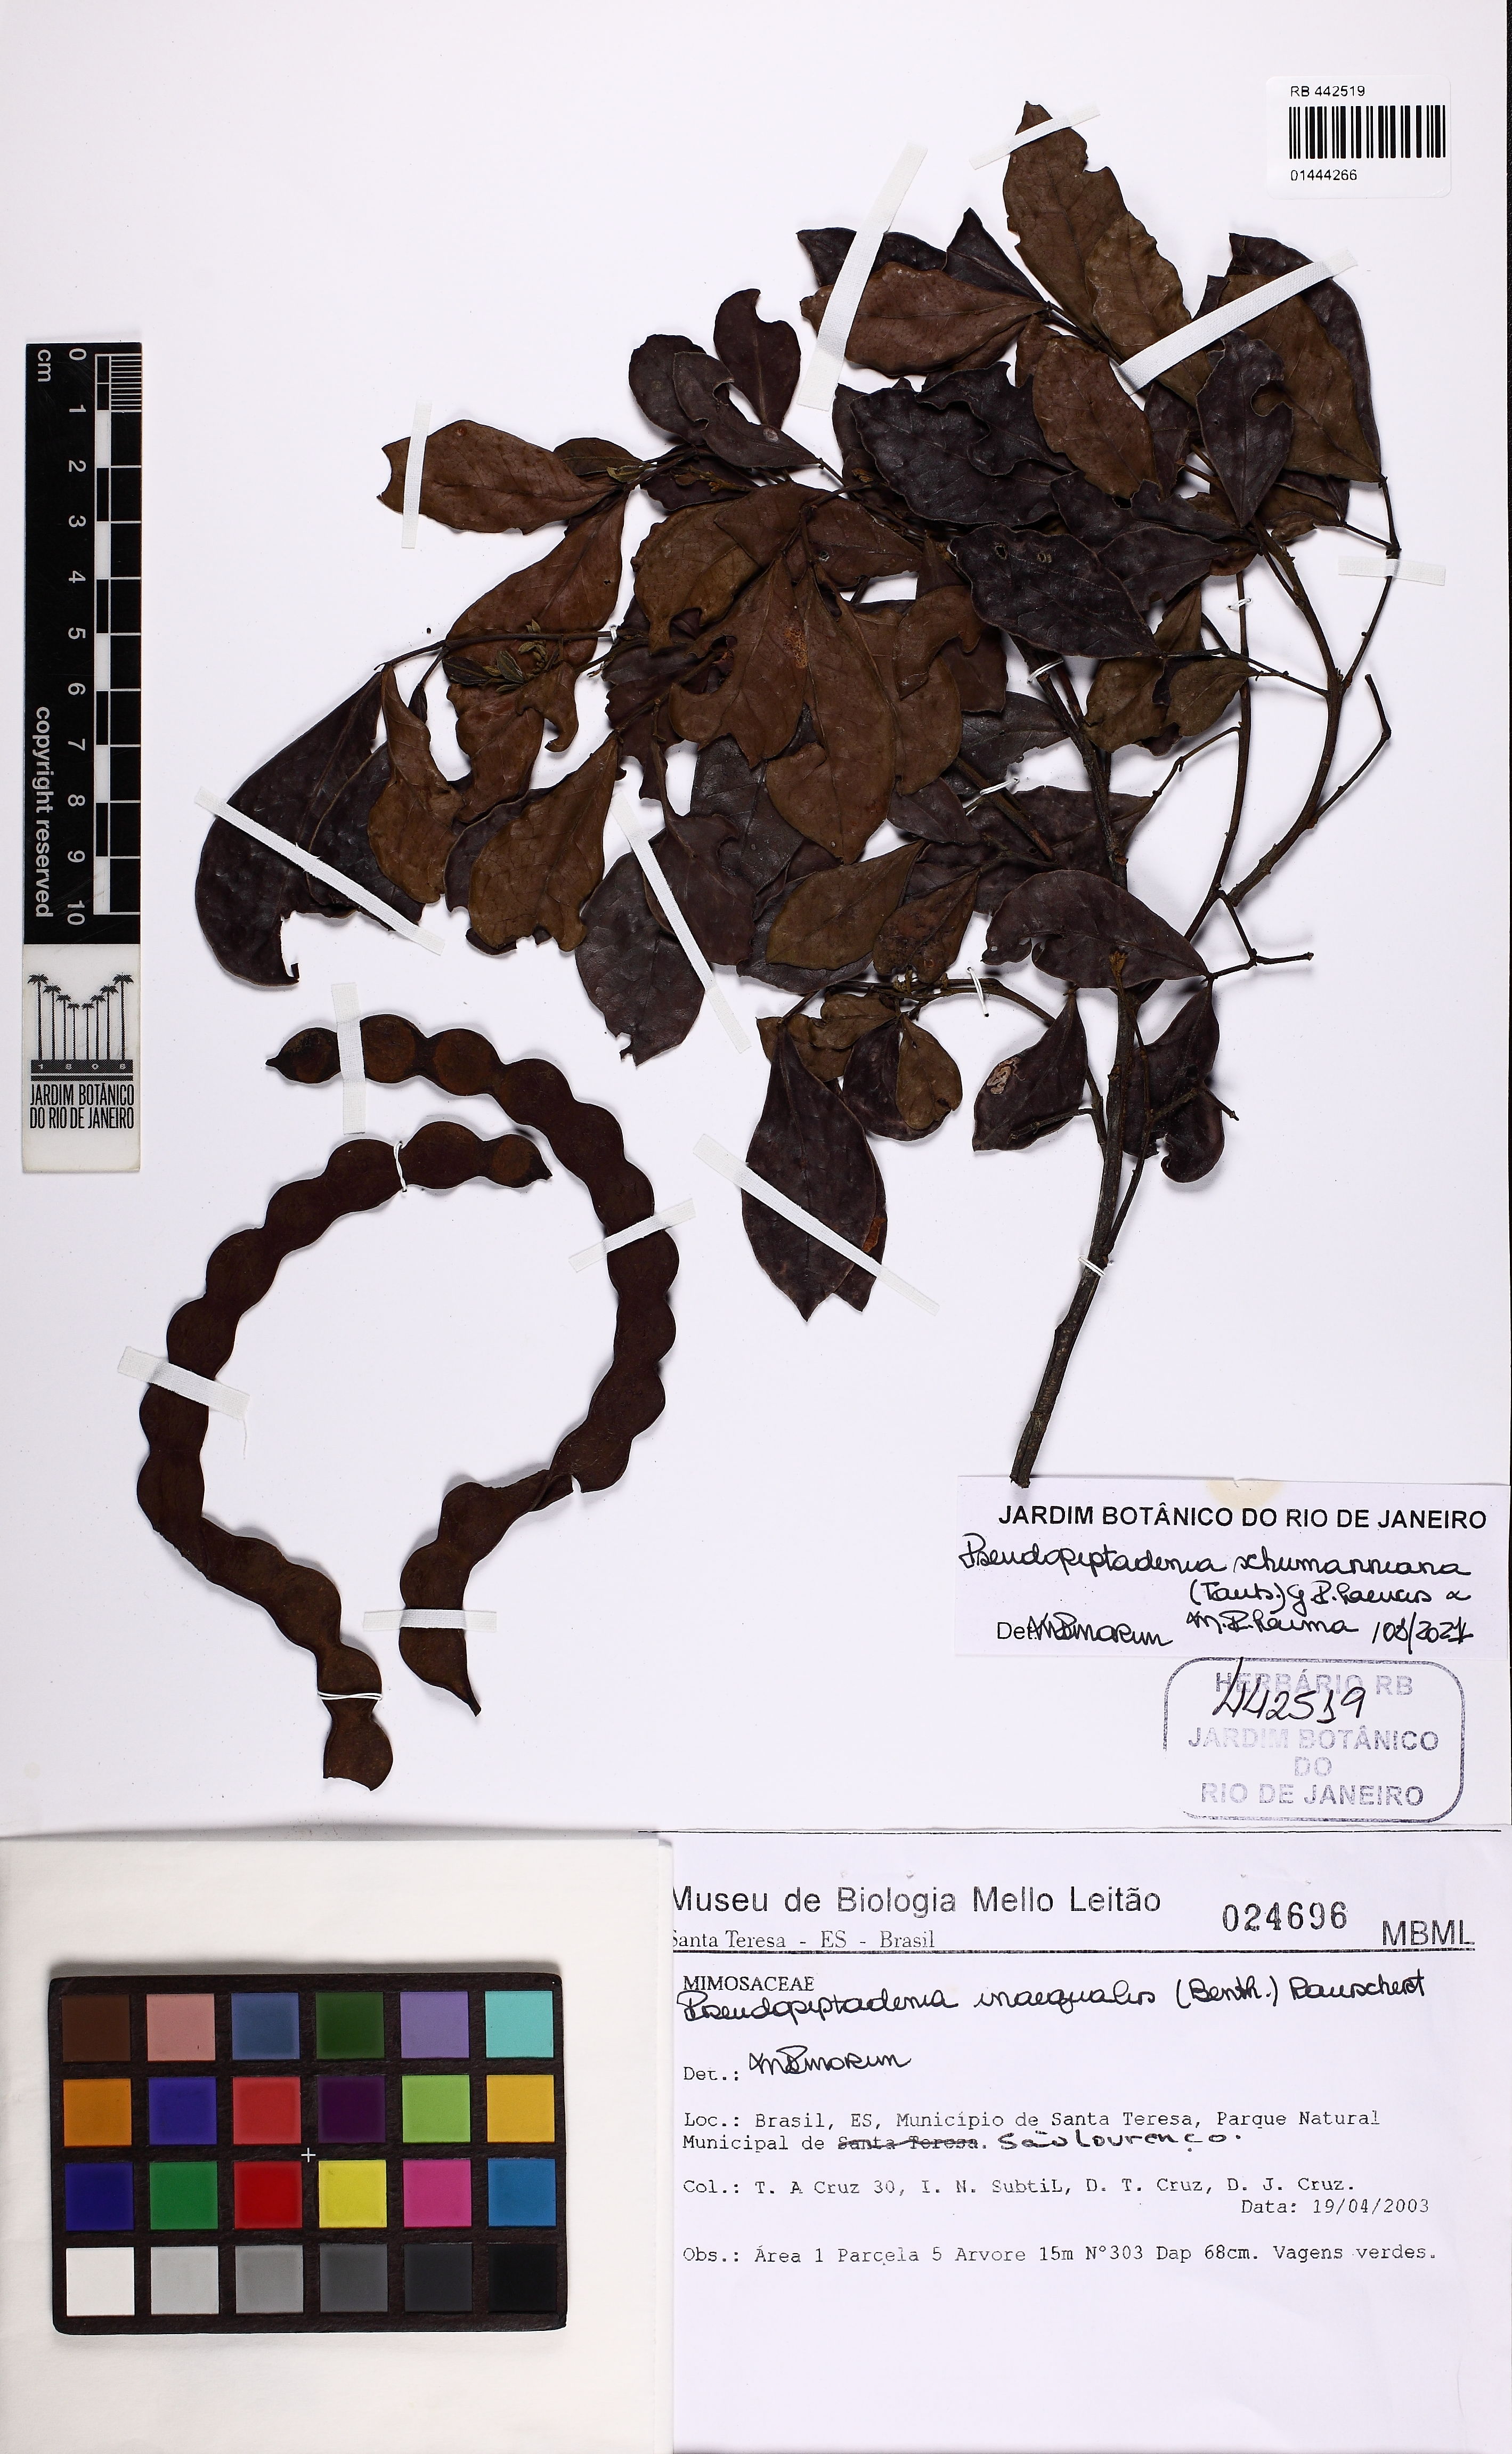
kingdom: Plantae
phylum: Tracheophyta
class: Magnoliopsida
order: Fabales
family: Fabaceae
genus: Pseudopiptadenia
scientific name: Pseudopiptadenia schumanniana
